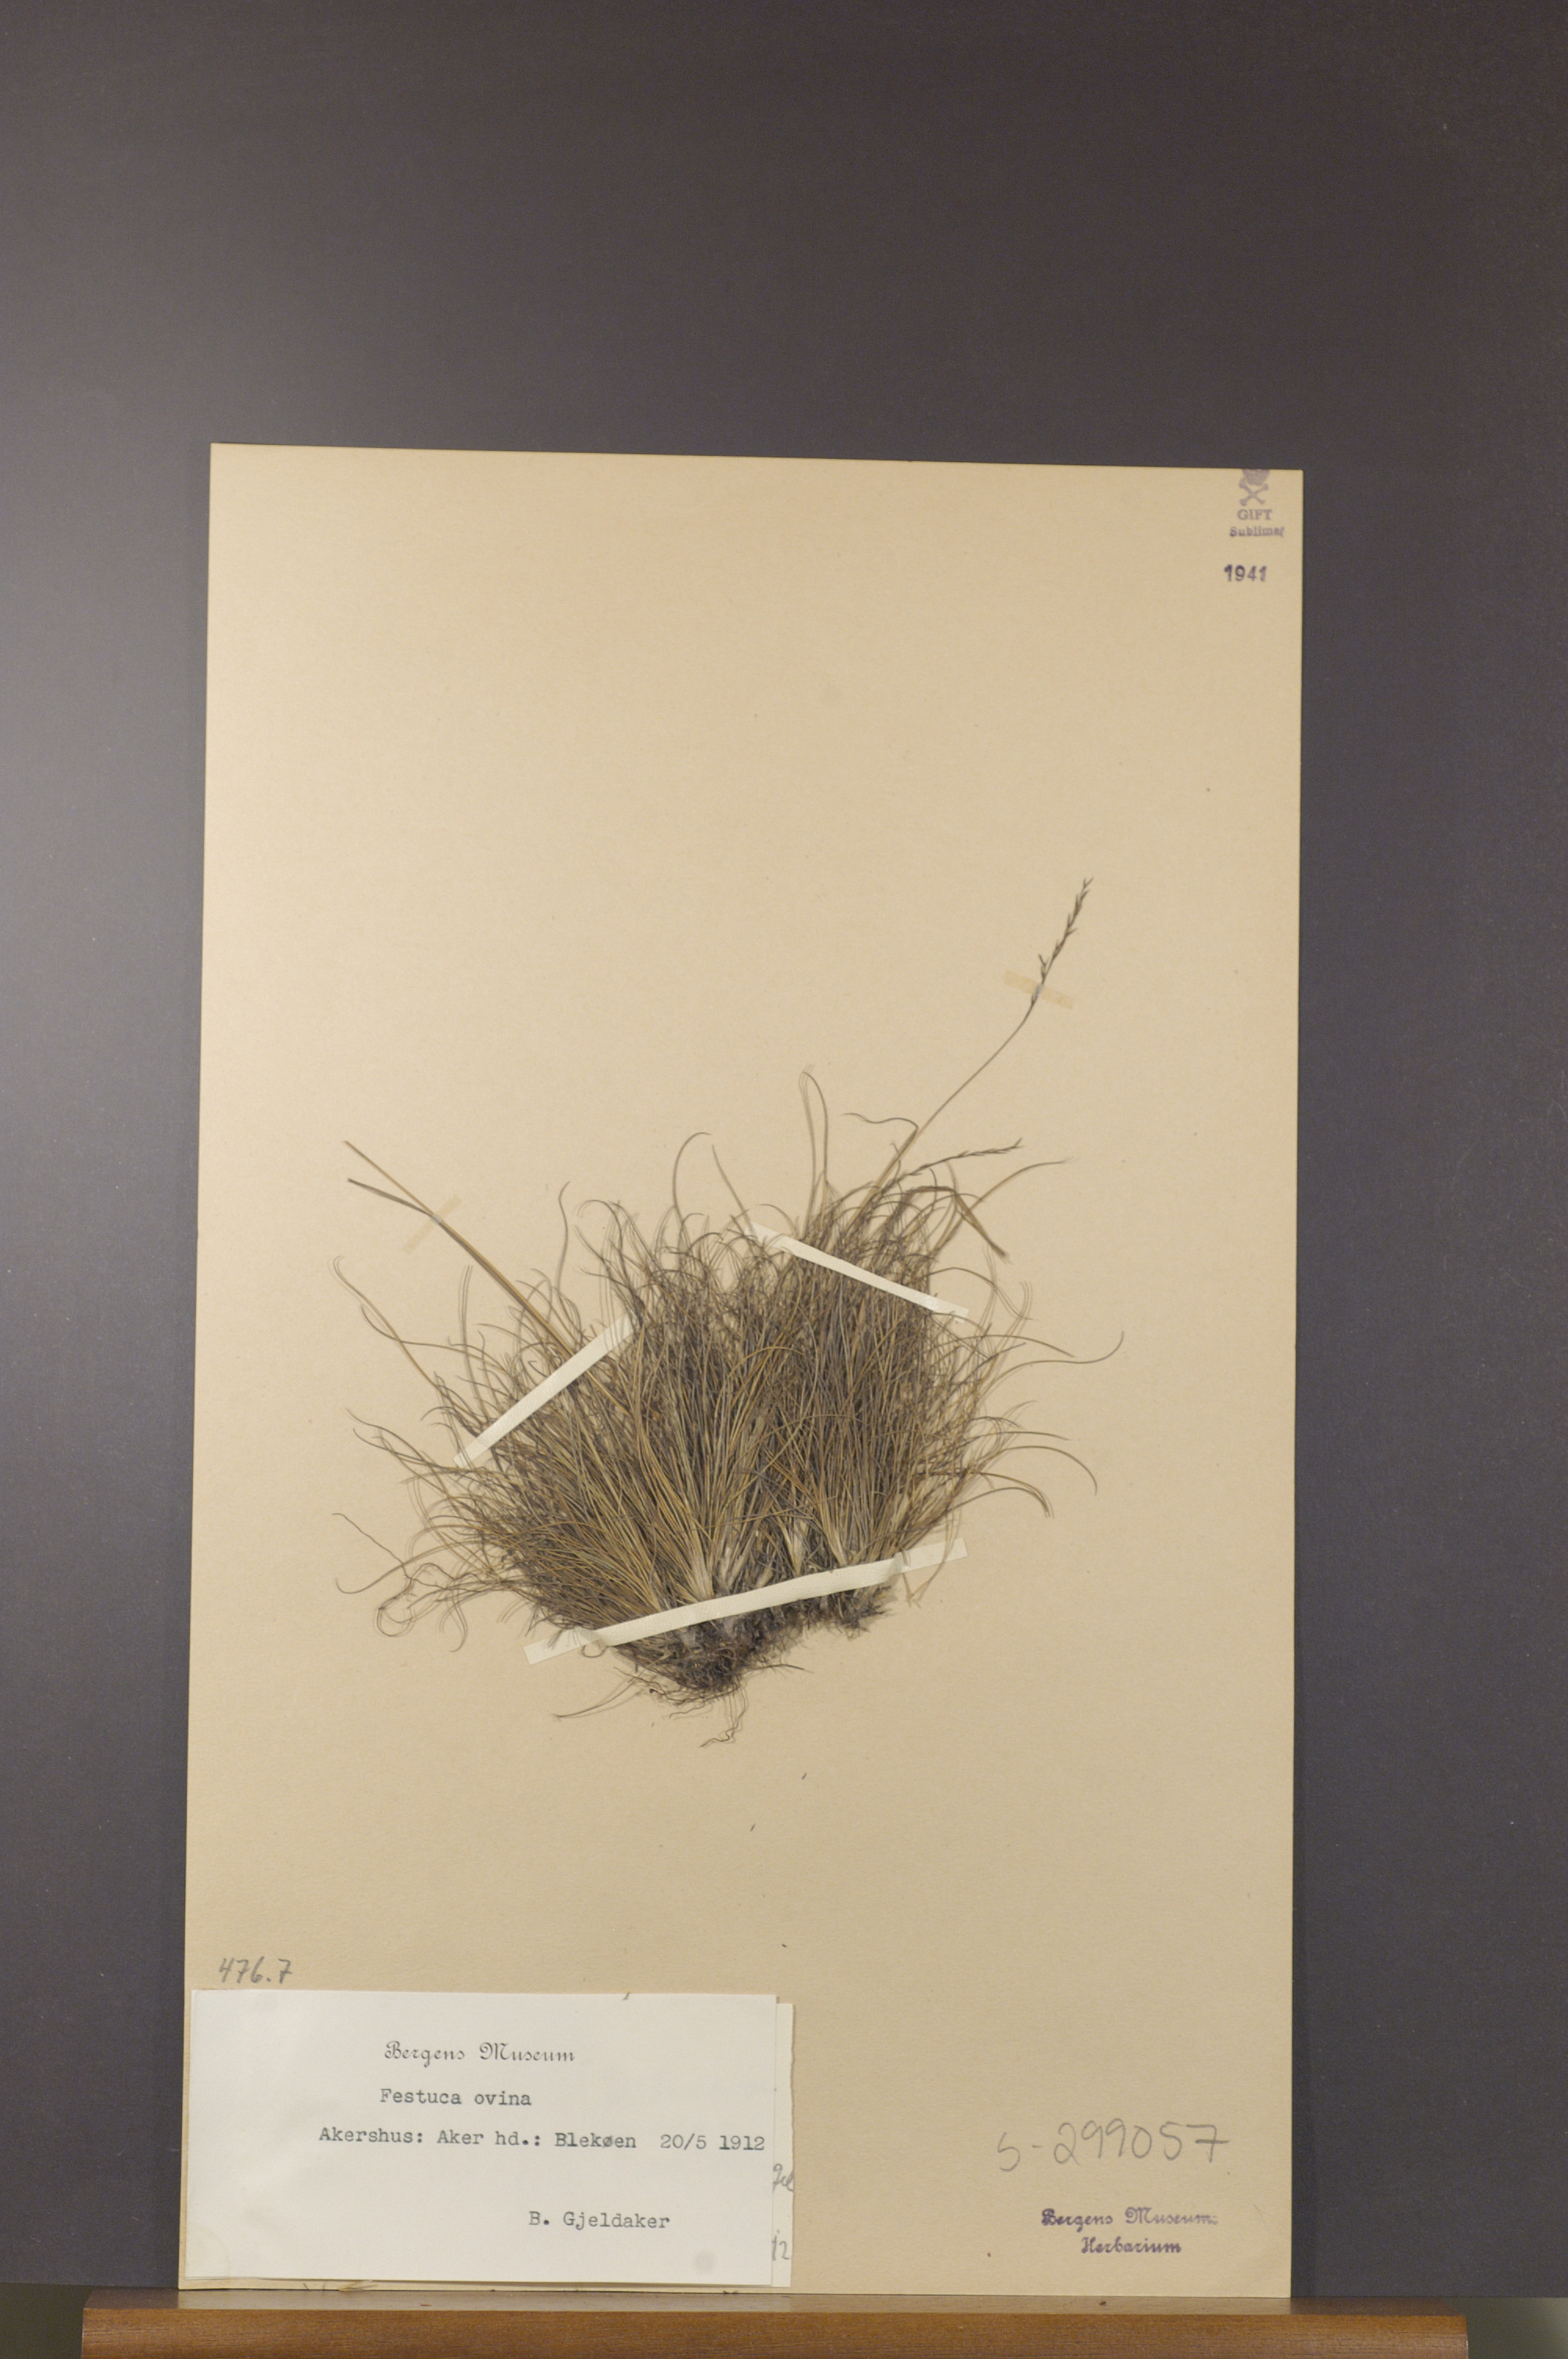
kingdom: Plantae
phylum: Tracheophyta
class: Liliopsida
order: Poales
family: Poaceae
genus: Festuca
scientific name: Festuca ovina
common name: Sheep fescue
